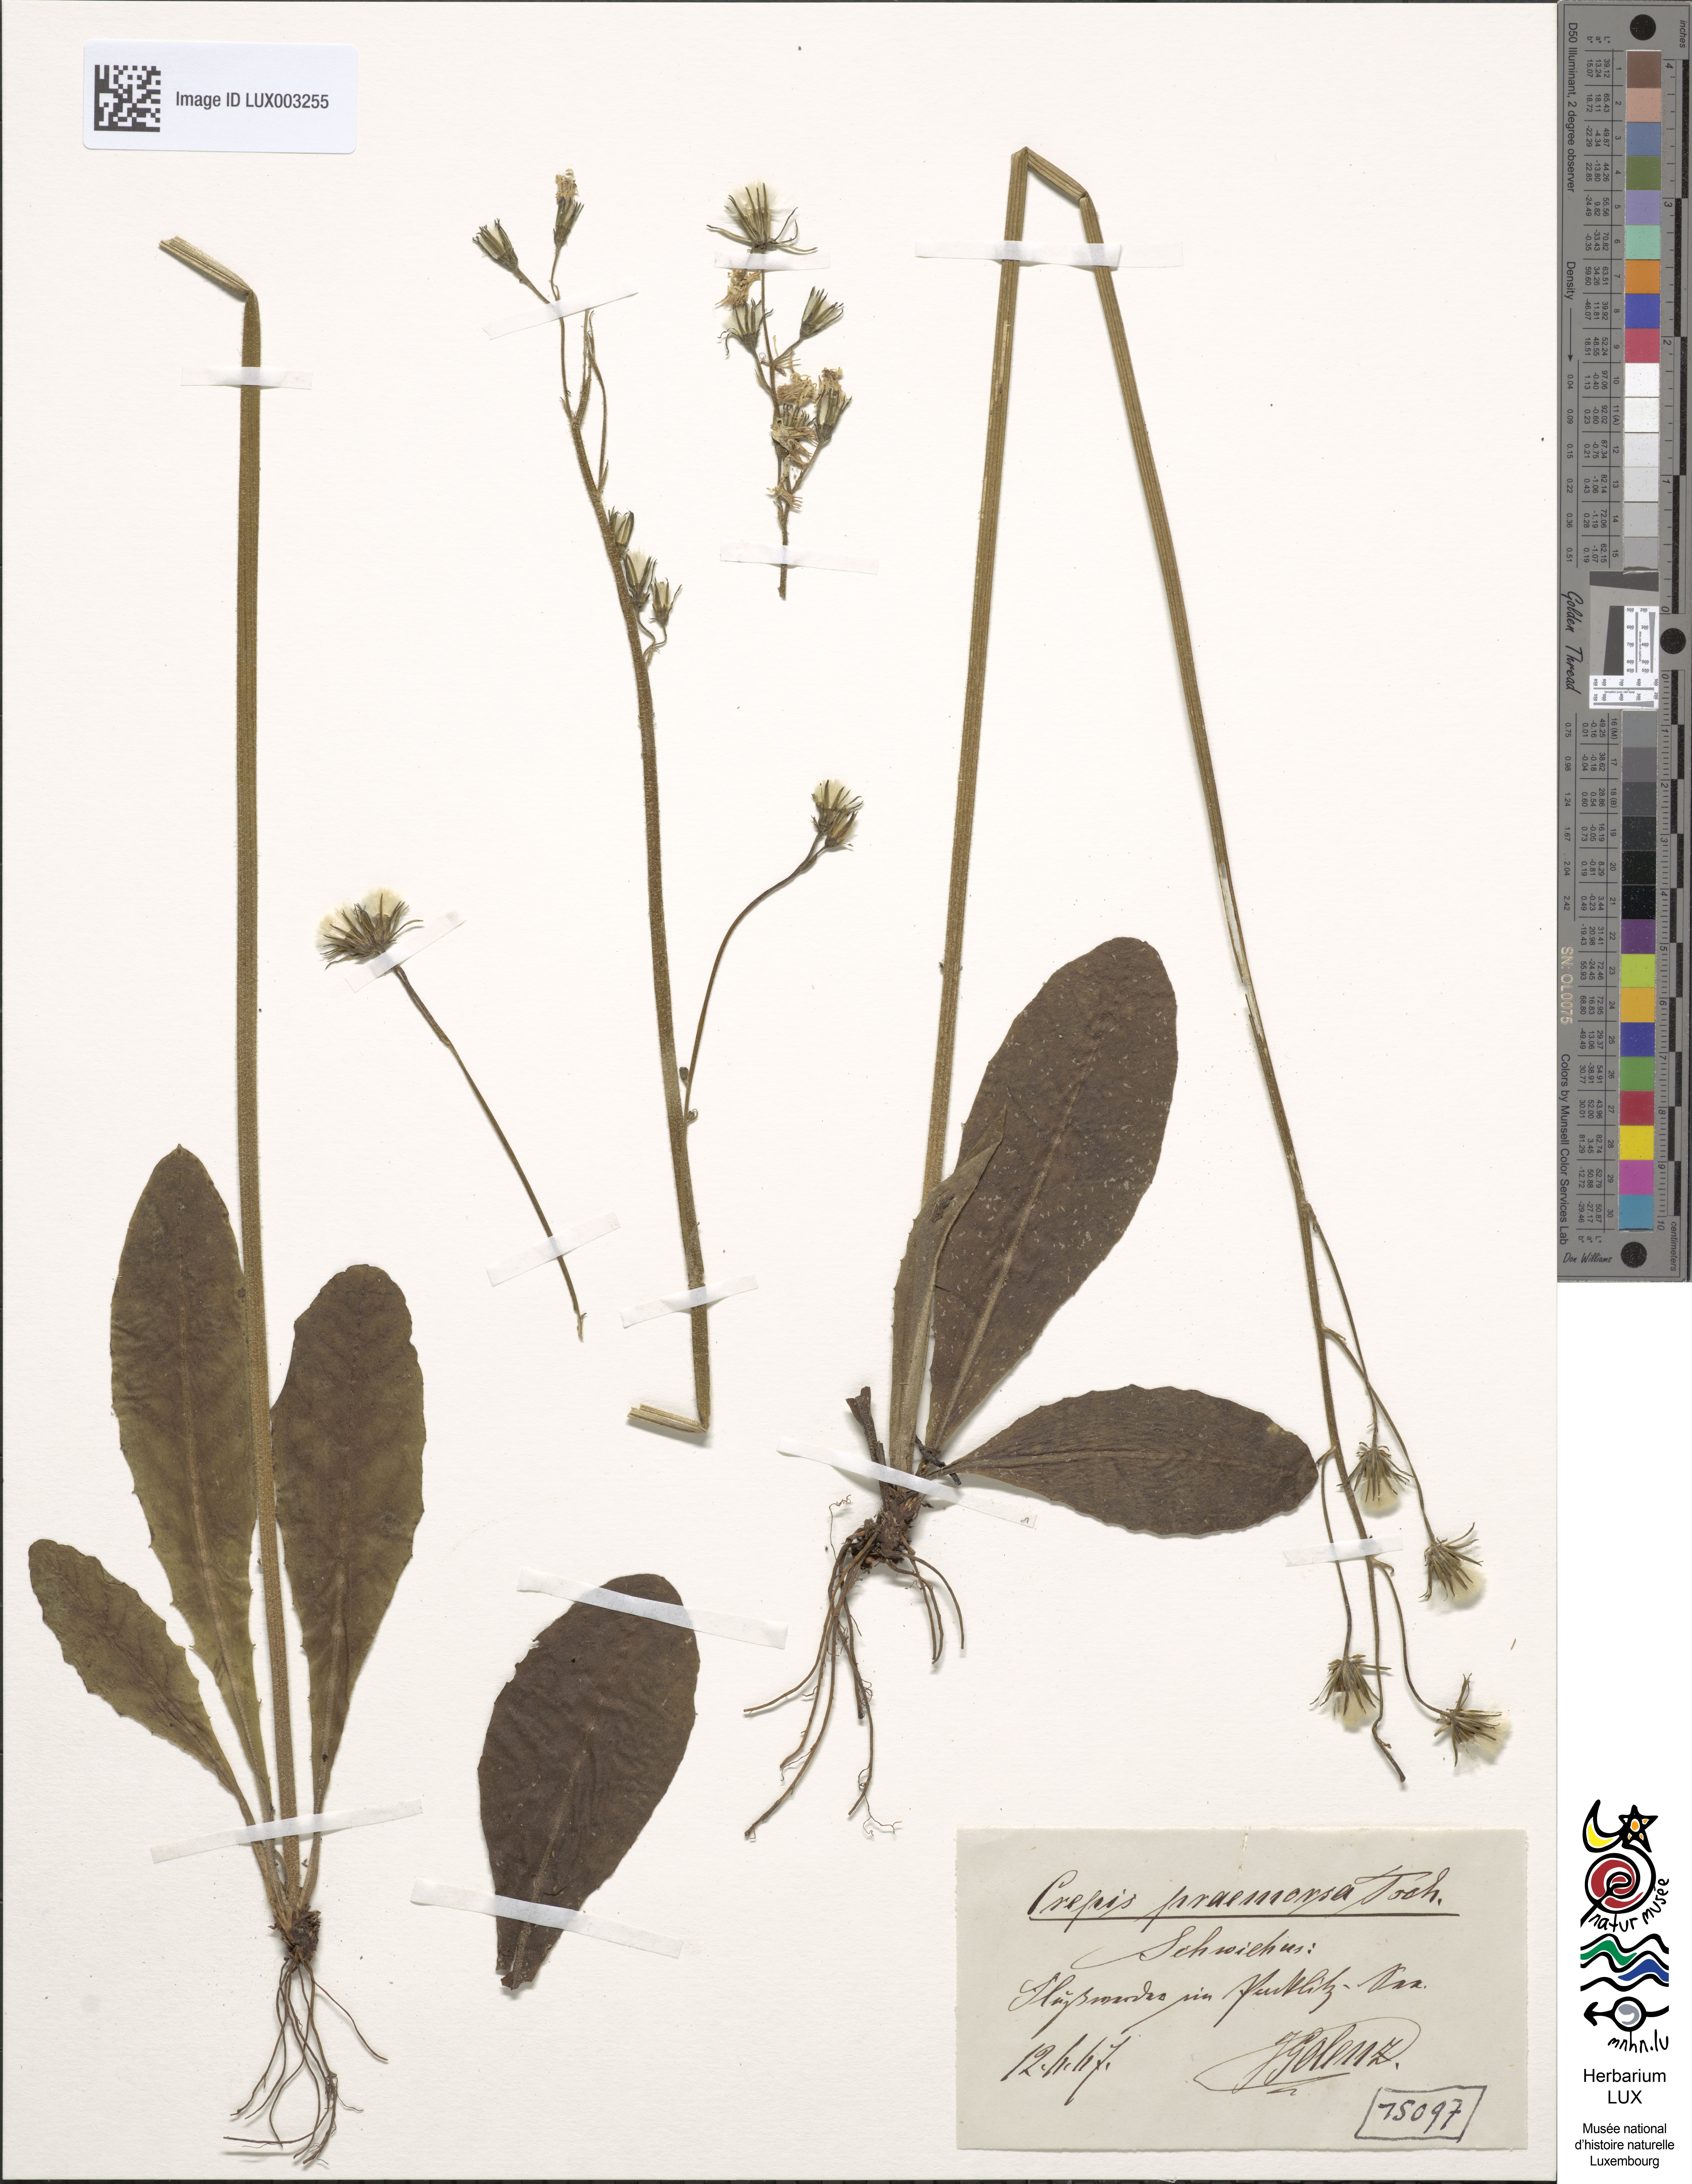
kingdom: Plantae
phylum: Tracheophyta
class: Magnoliopsida
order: Asterales
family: Asteraceae
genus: Crepis
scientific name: Crepis praemorsa
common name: Leafless hawk's-beard
